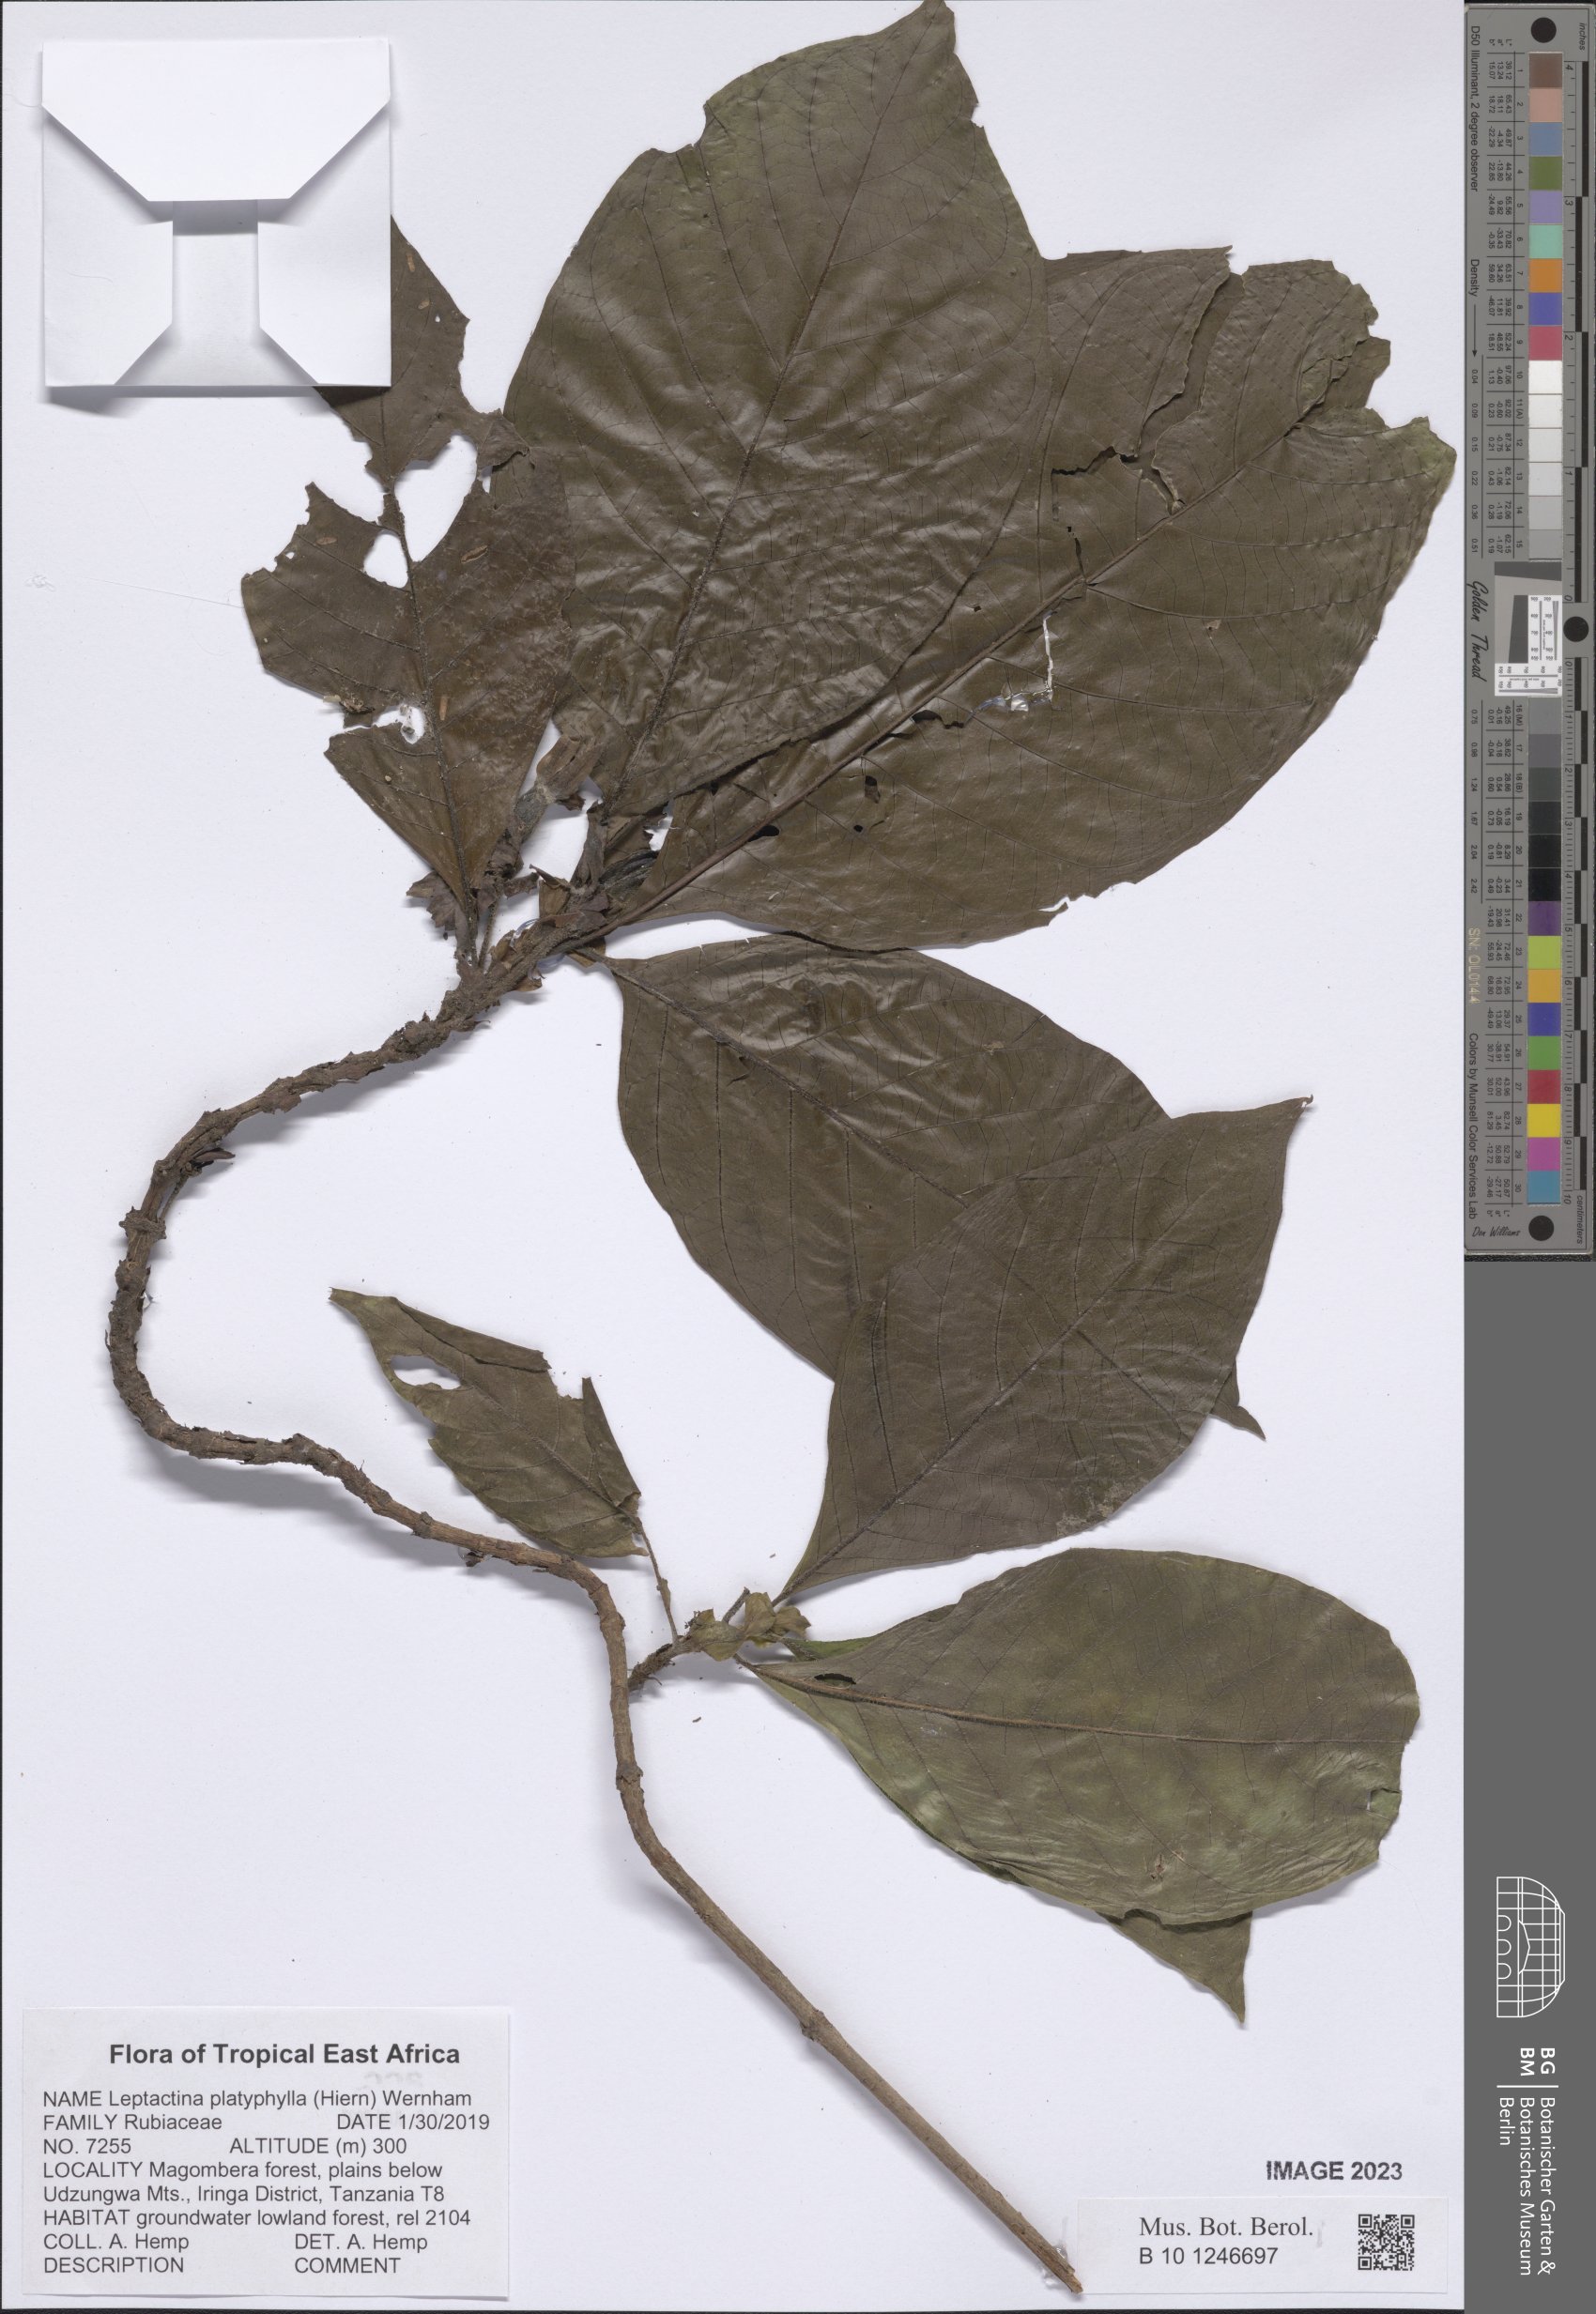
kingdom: Plantae
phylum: Tracheophyta
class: Magnoliopsida
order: Gentianales
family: Rubiaceae
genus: Leptactina
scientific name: Leptactina platyphylla
